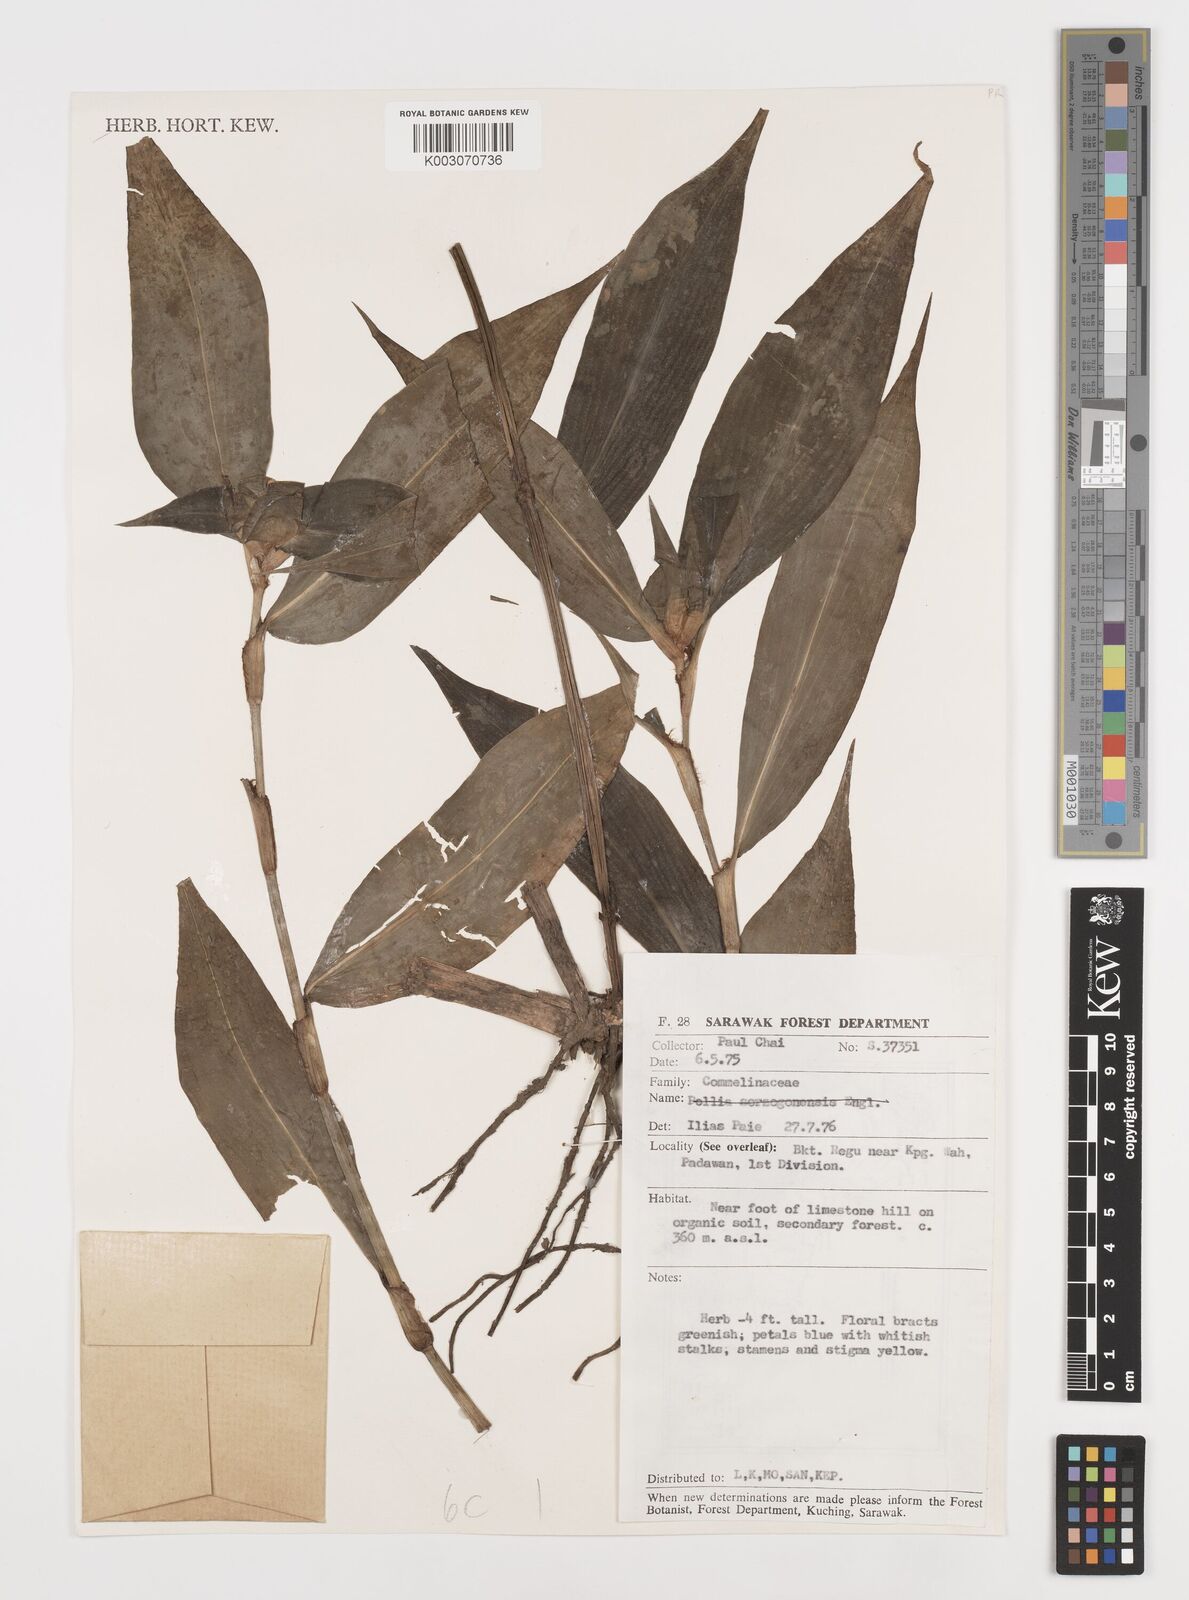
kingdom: Plantae
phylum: Tracheophyta
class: Liliopsida
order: Commelinales
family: Commelinaceae
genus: Commelina
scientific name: Commelina paludosa
